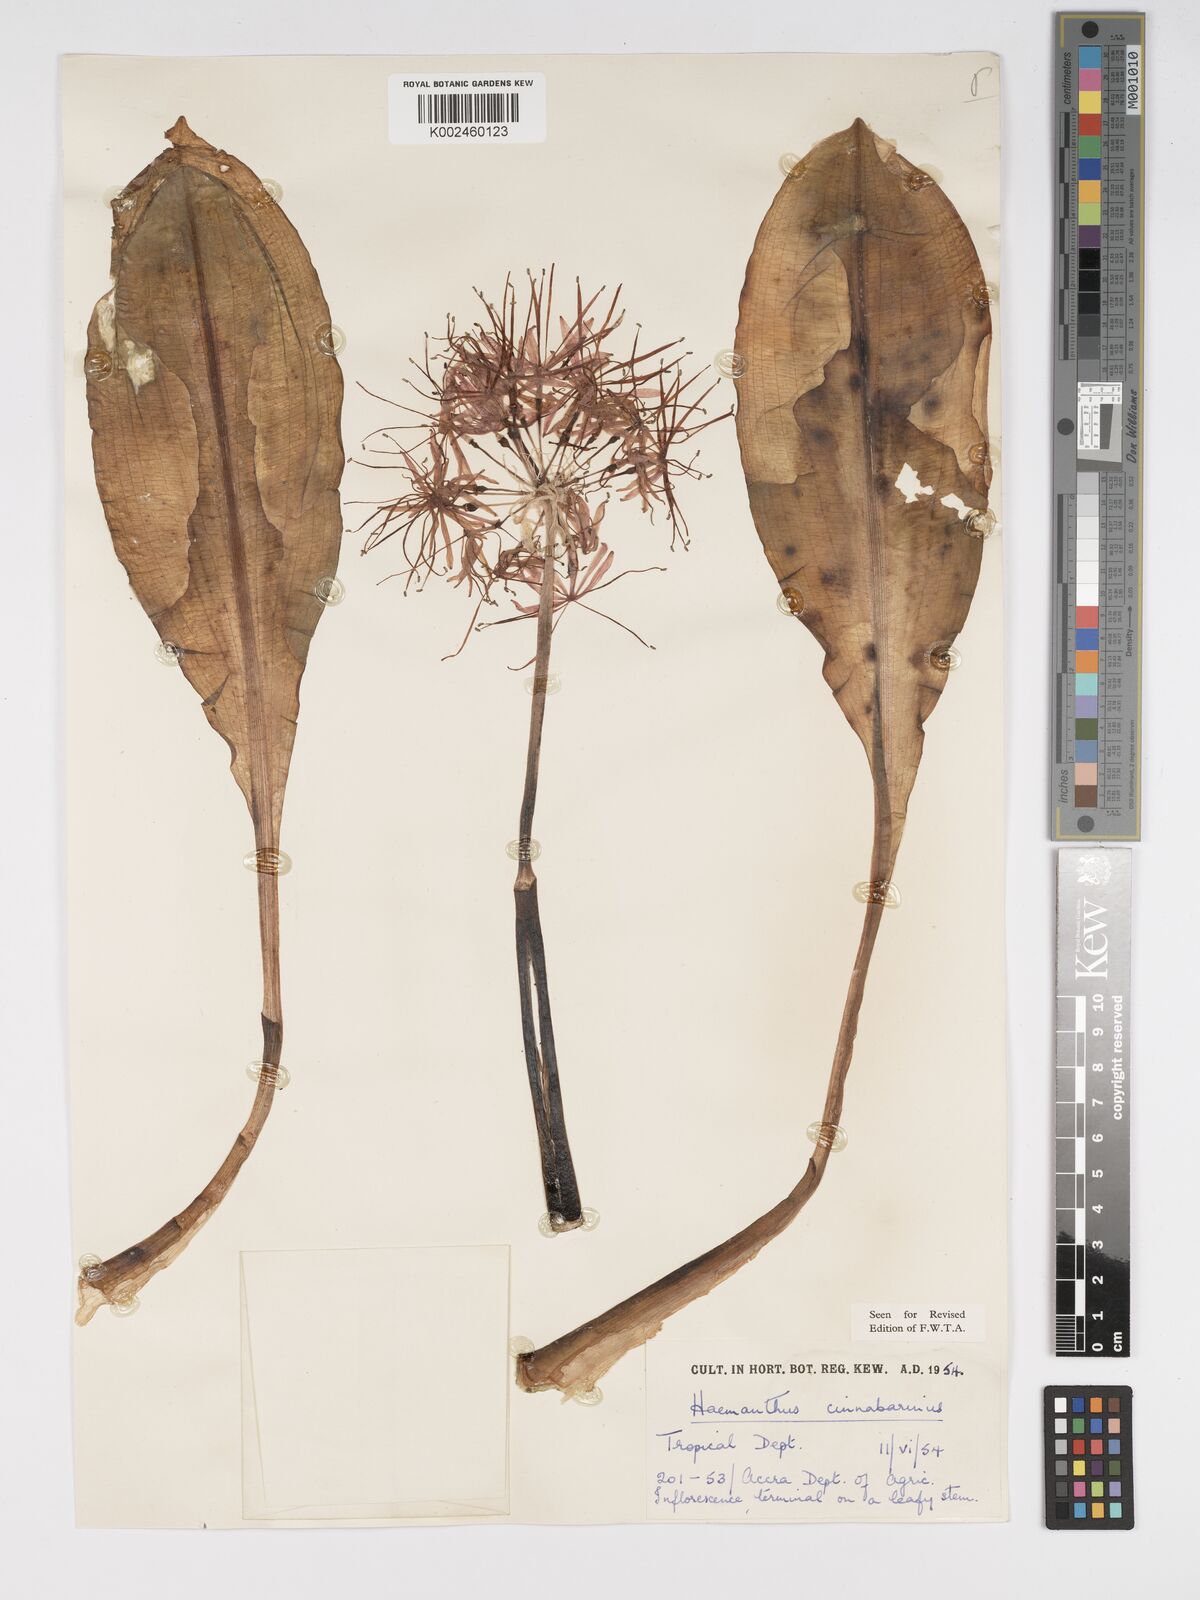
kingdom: Plantae
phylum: Tracheophyta
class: Liliopsida
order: Asparagales
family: Amaryllidaceae
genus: Scadoxus
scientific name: Scadoxus cinnabarinus
